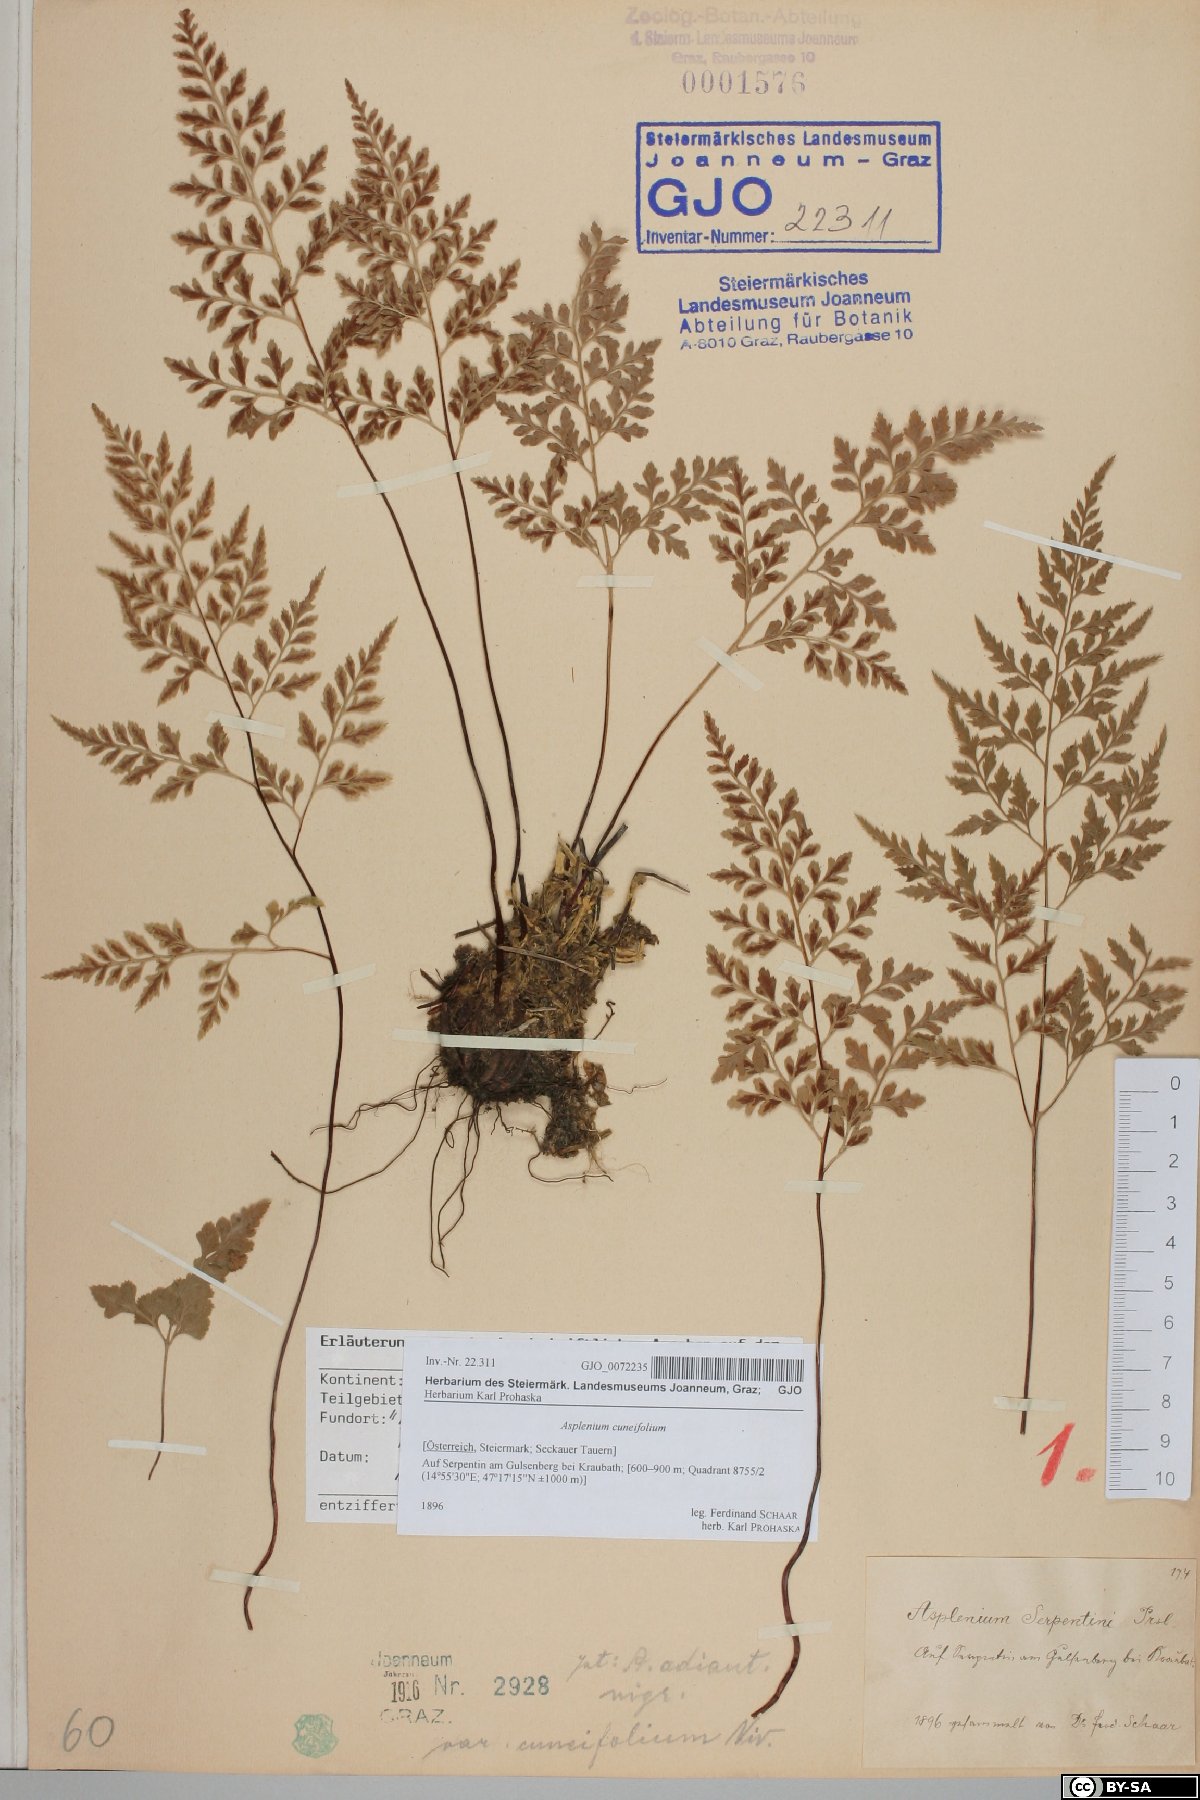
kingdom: Plantae
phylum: Tracheophyta
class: Polypodiopsida
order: Polypodiales
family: Aspleniaceae
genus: Asplenium
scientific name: Asplenium cuneifolium
